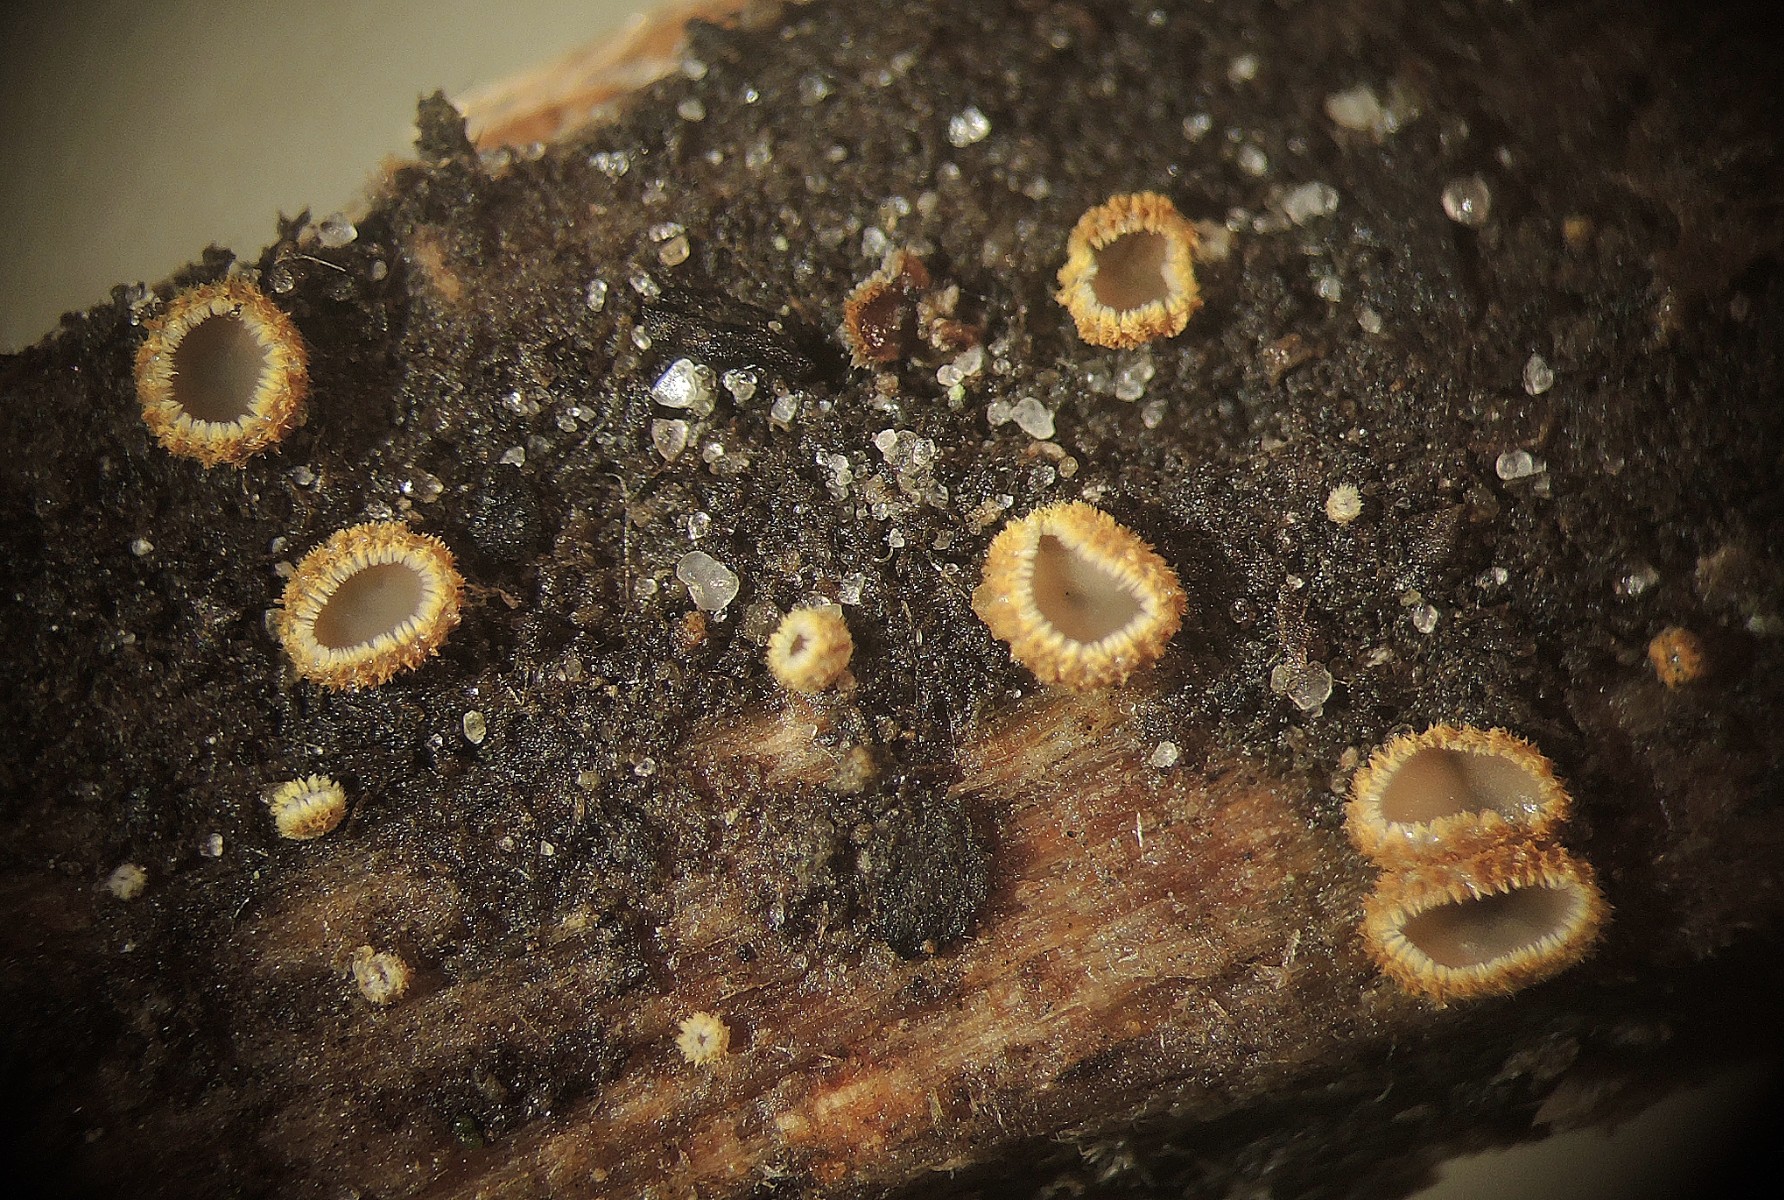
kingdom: Fungi
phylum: Ascomycota
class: Leotiomycetes
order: Helotiales
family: Lachnaceae
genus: Lachnum
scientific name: Lachnum sulphureum
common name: svovlhåret frynseskive
